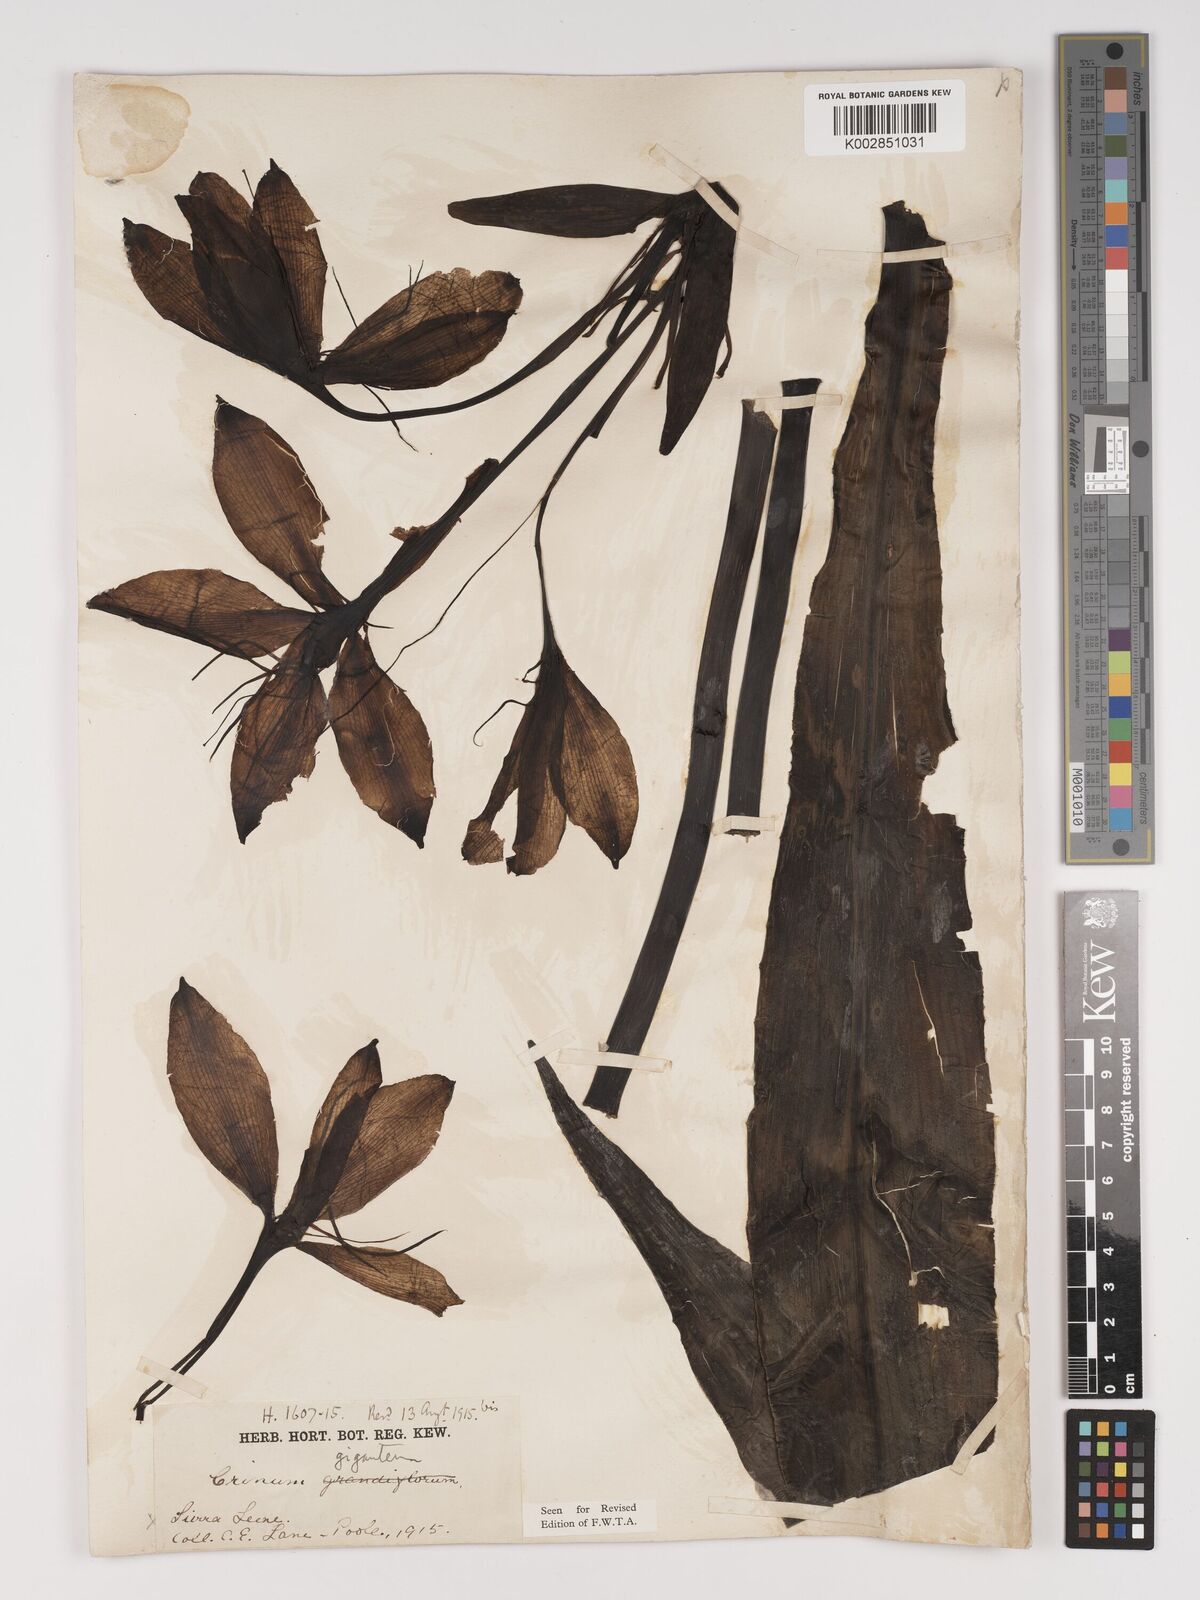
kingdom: Plantae
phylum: Tracheophyta
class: Liliopsida
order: Asparagales
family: Amaryllidaceae
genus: Crinum
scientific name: Crinum jagus
